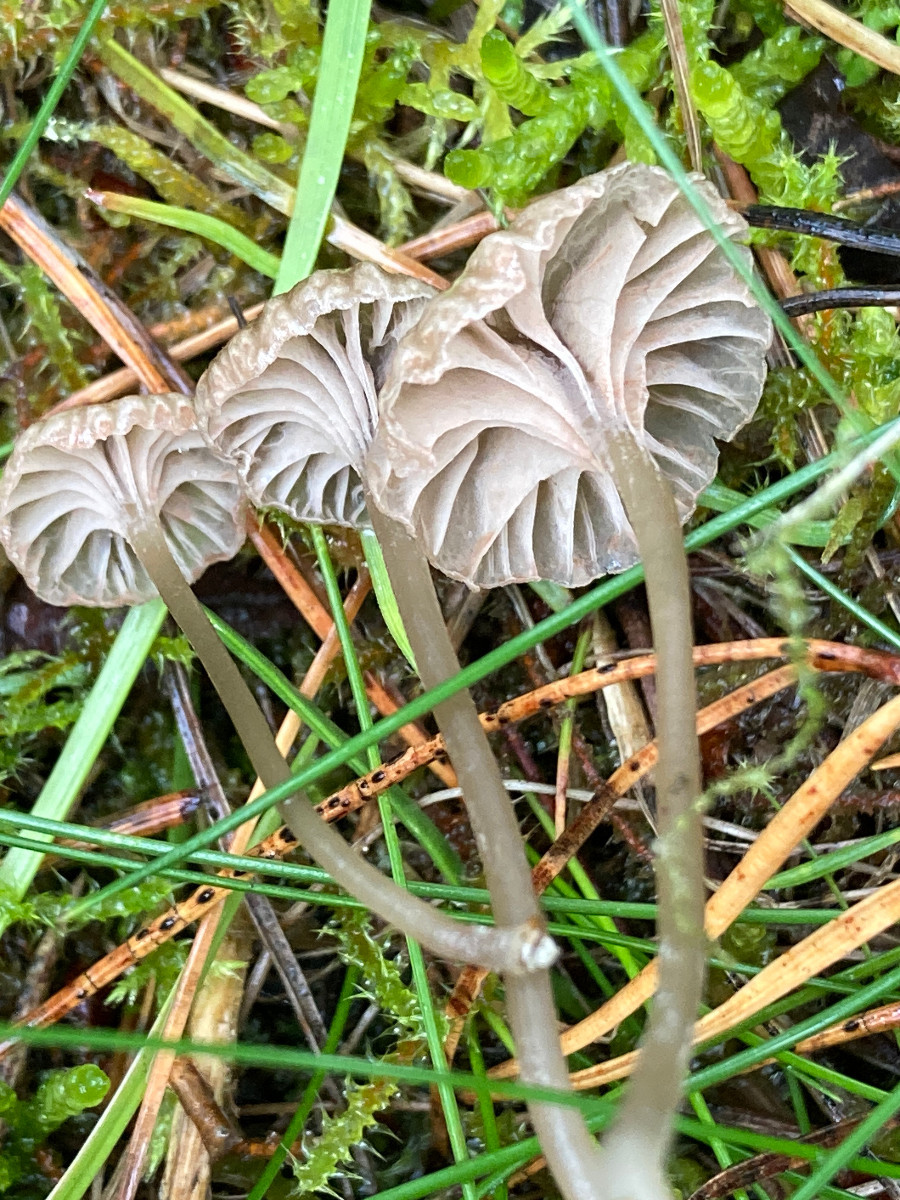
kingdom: Fungi
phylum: Basidiomycota
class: Agaricomycetes
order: Agaricales
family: Entolomataceae
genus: Entoloma
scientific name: Entoloma rhodocylix
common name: fjernbladet rødblad
